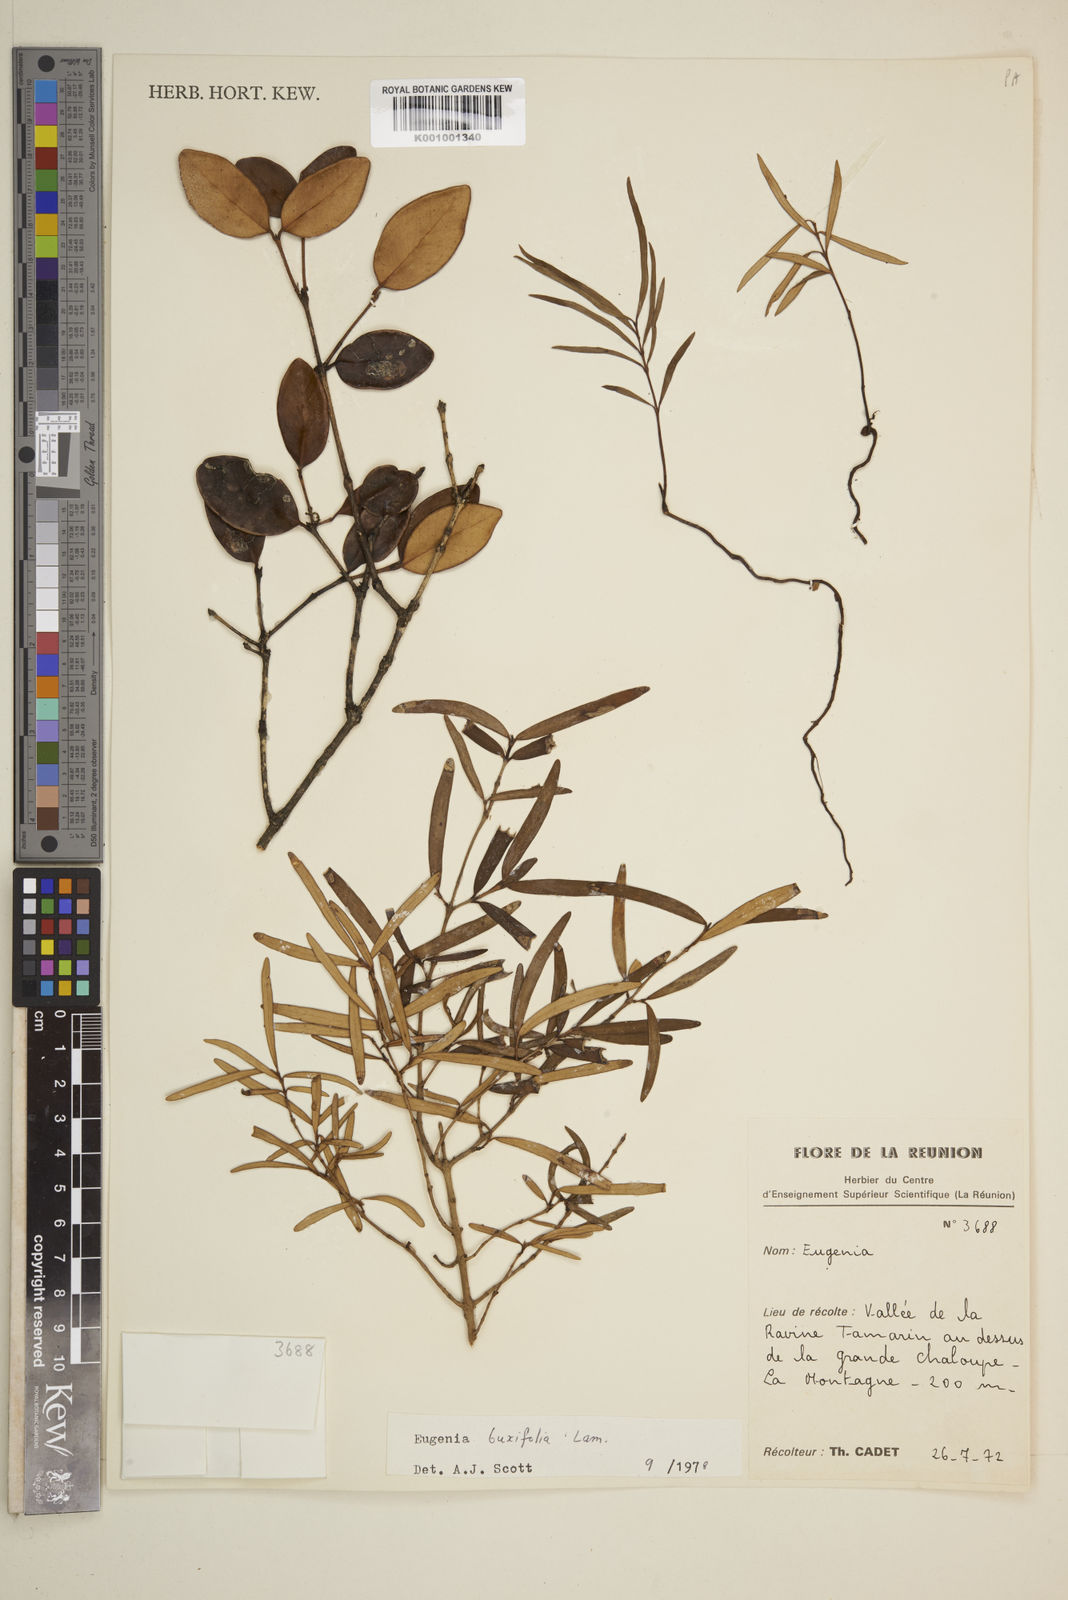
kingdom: Plantae
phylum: Tracheophyta
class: Magnoliopsida
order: Myrtales
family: Myrtaceae
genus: Eugenia
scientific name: Eugenia buxifolia
